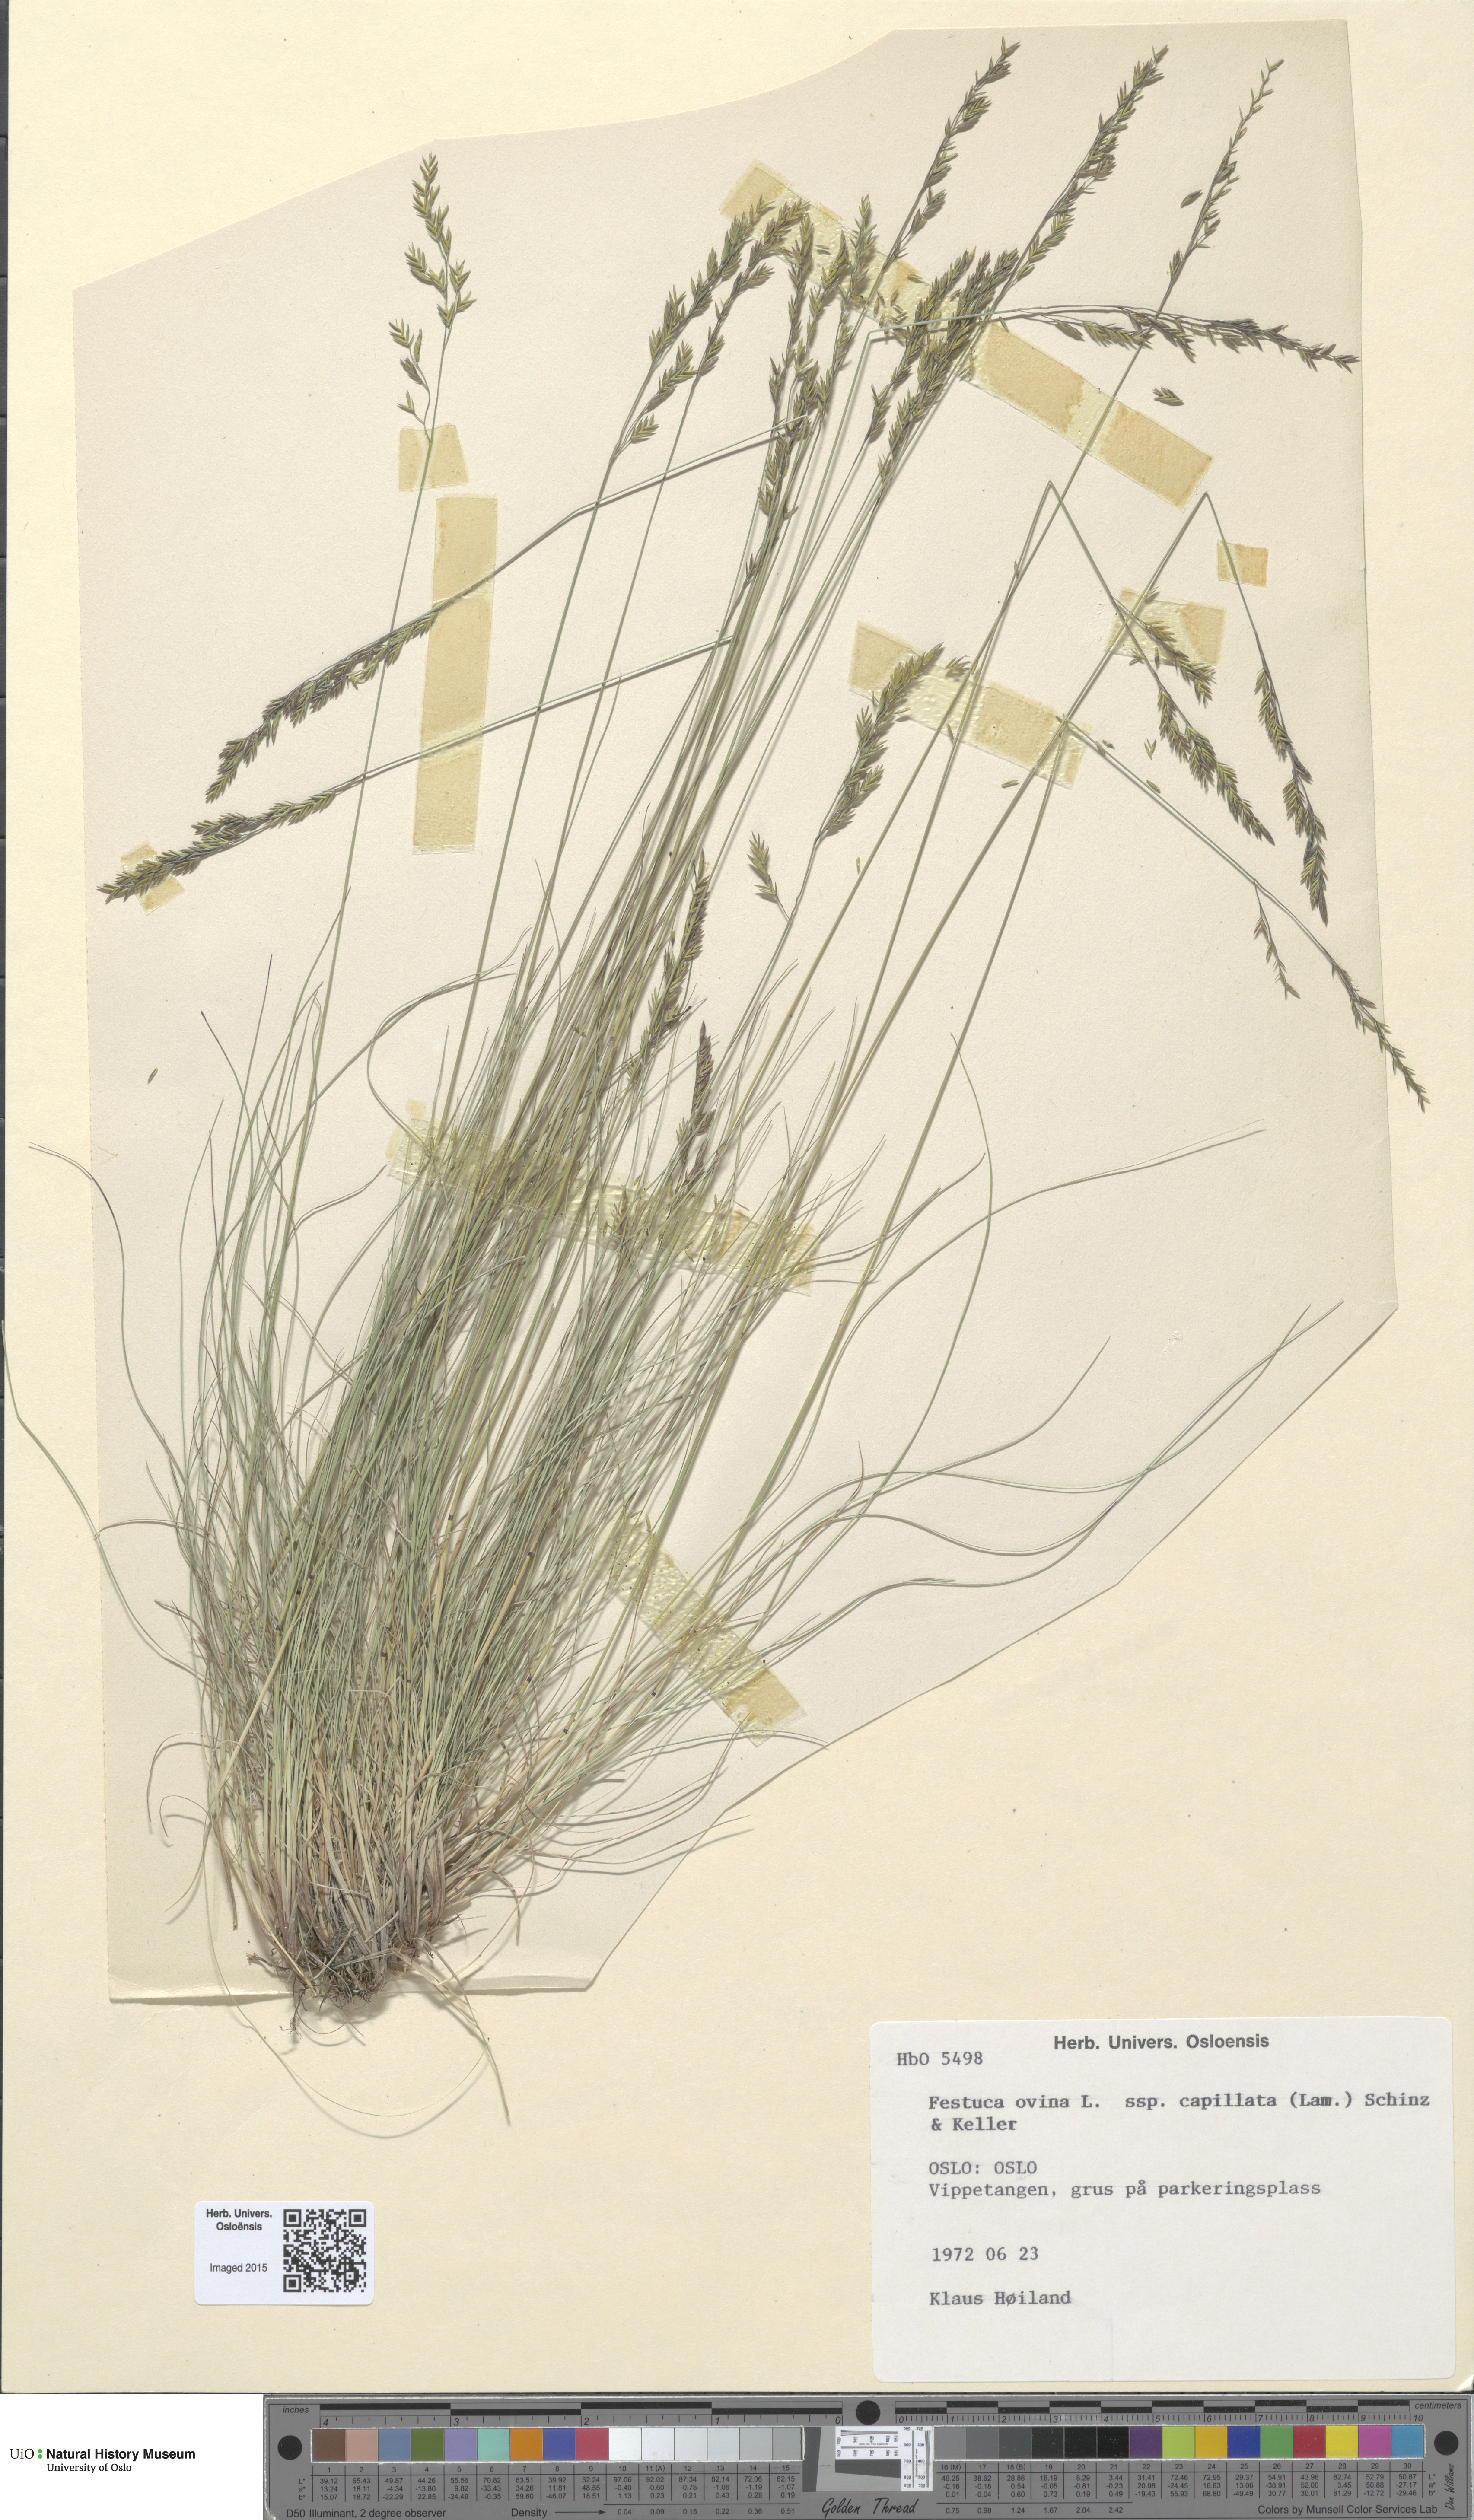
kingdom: Plantae
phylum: Tracheophyta
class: Liliopsida
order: Poales
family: Poaceae
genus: Festuca
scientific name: Festuca filiformis
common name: Fine-leaved sheep's-fescue
